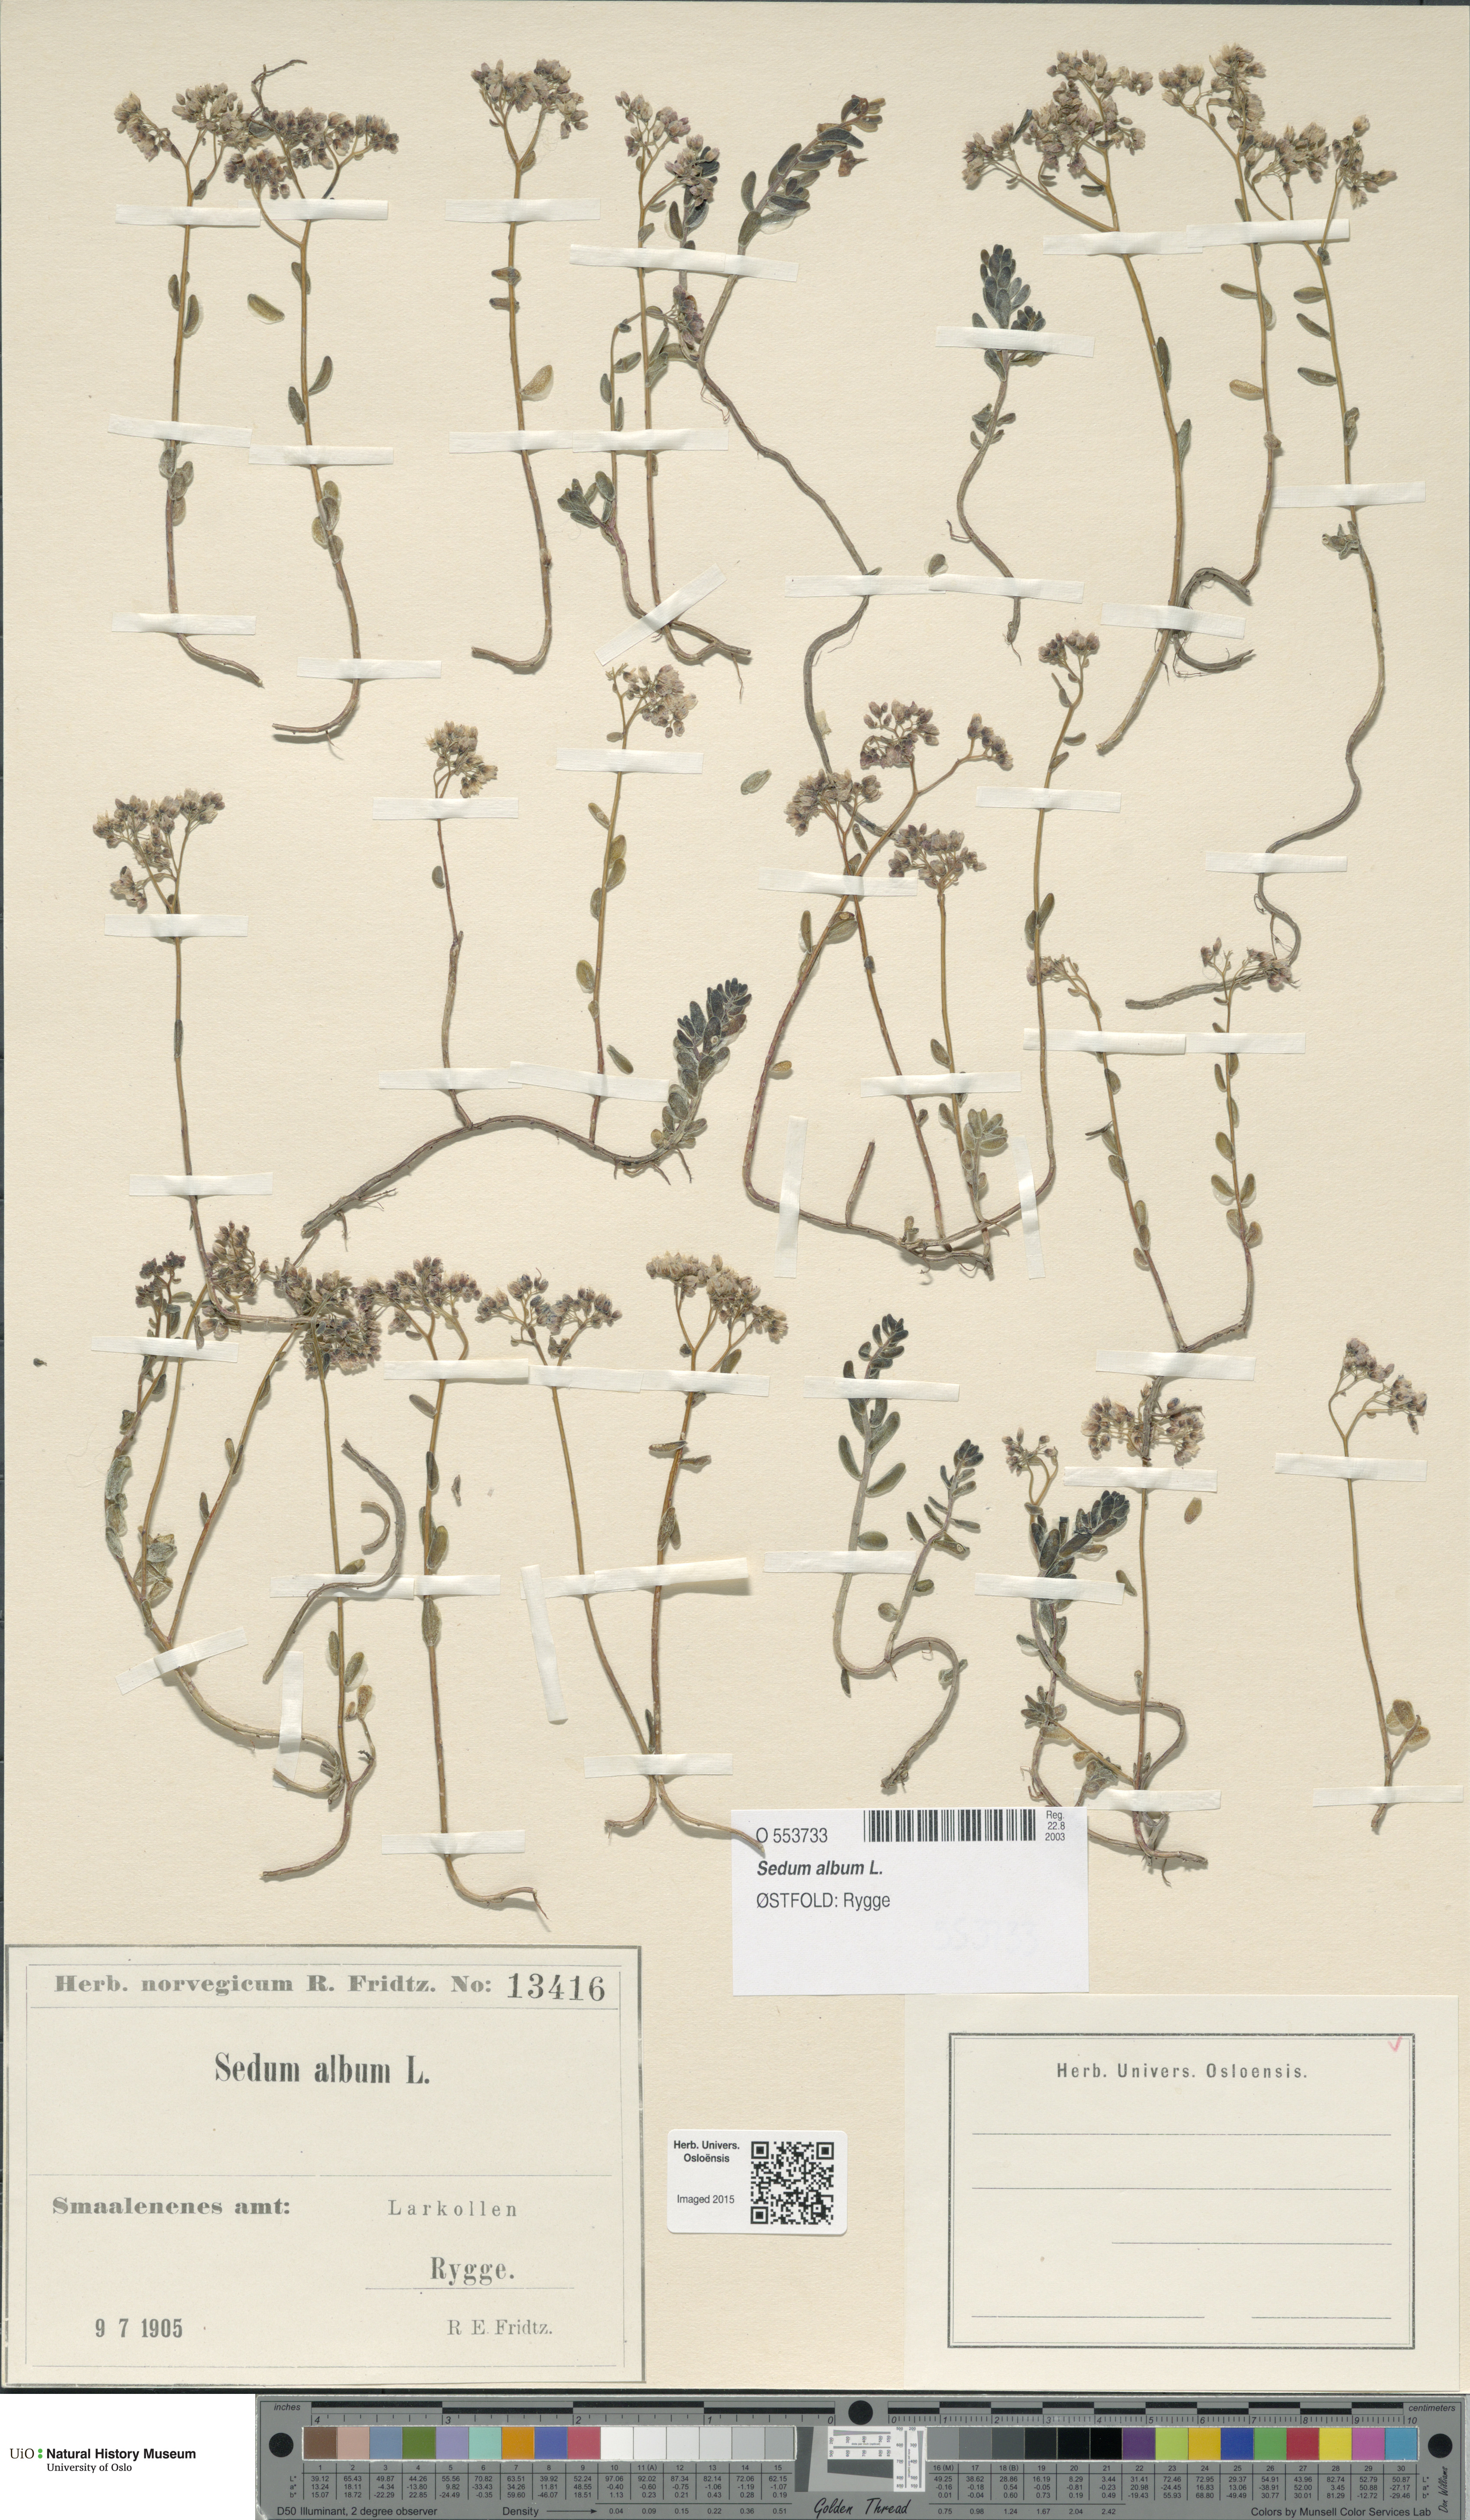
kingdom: Plantae
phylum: Tracheophyta
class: Magnoliopsida
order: Saxifragales
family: Crassulaceae
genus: Sedum
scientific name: Sedum album
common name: White stonecrop
